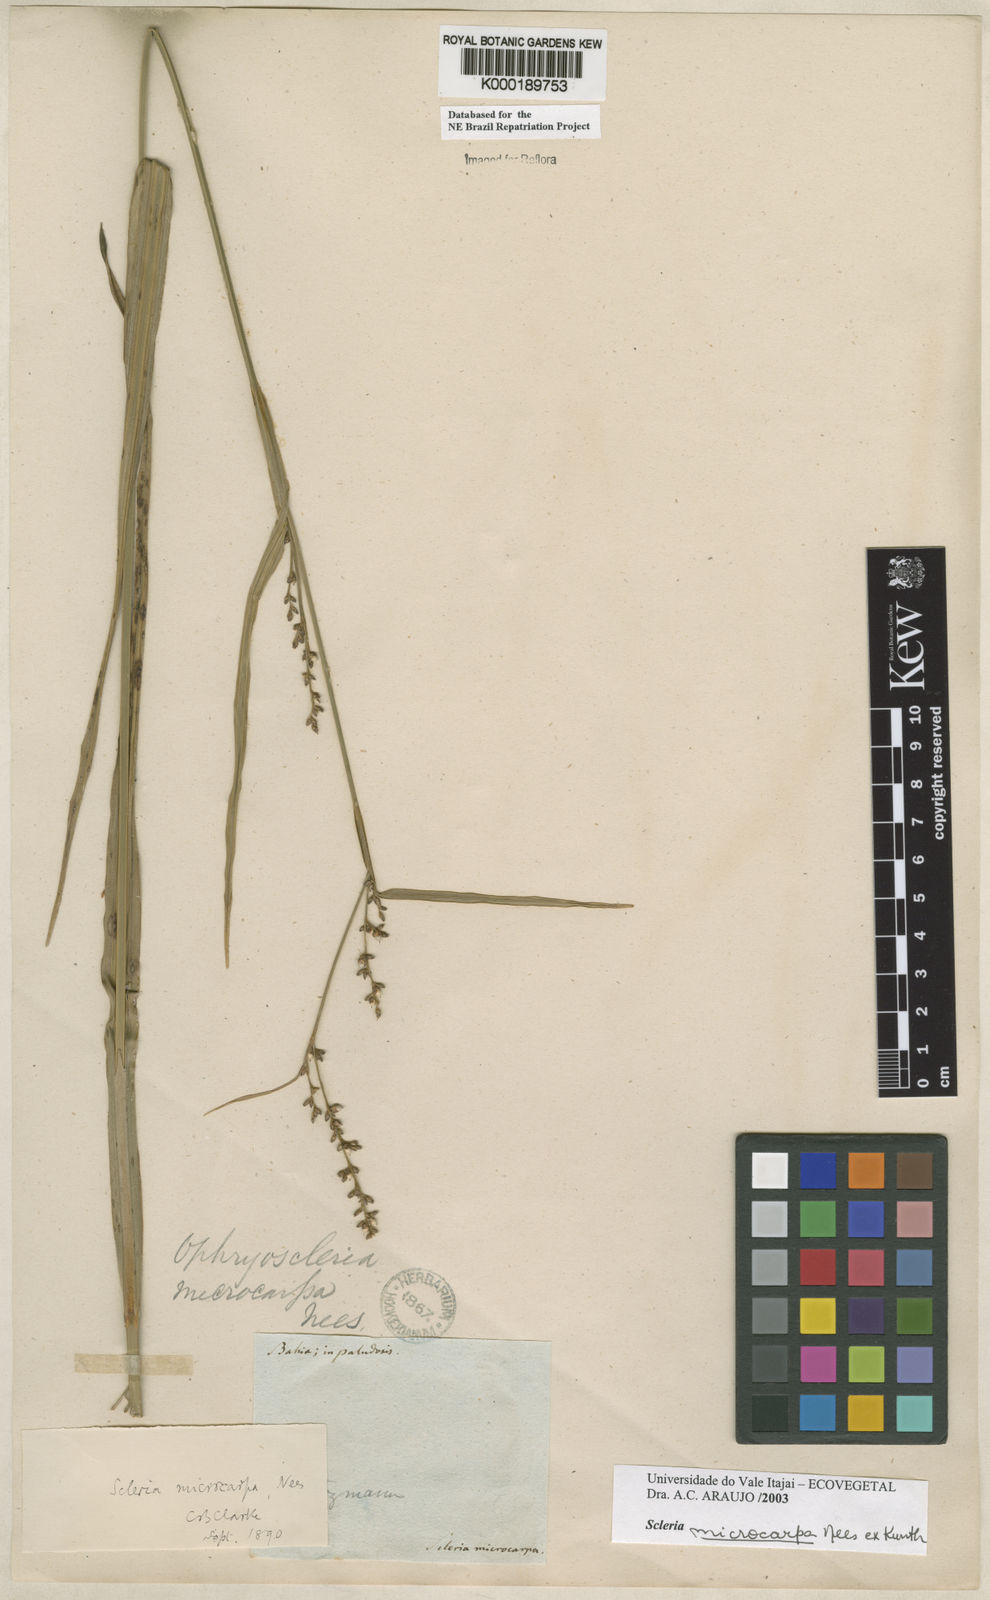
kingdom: Plantae
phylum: Tracheophyta
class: Liliopsida
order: Poales
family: Cyperaceae
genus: Scleria
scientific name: Scleria microcarpa
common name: Tropical nutrush
